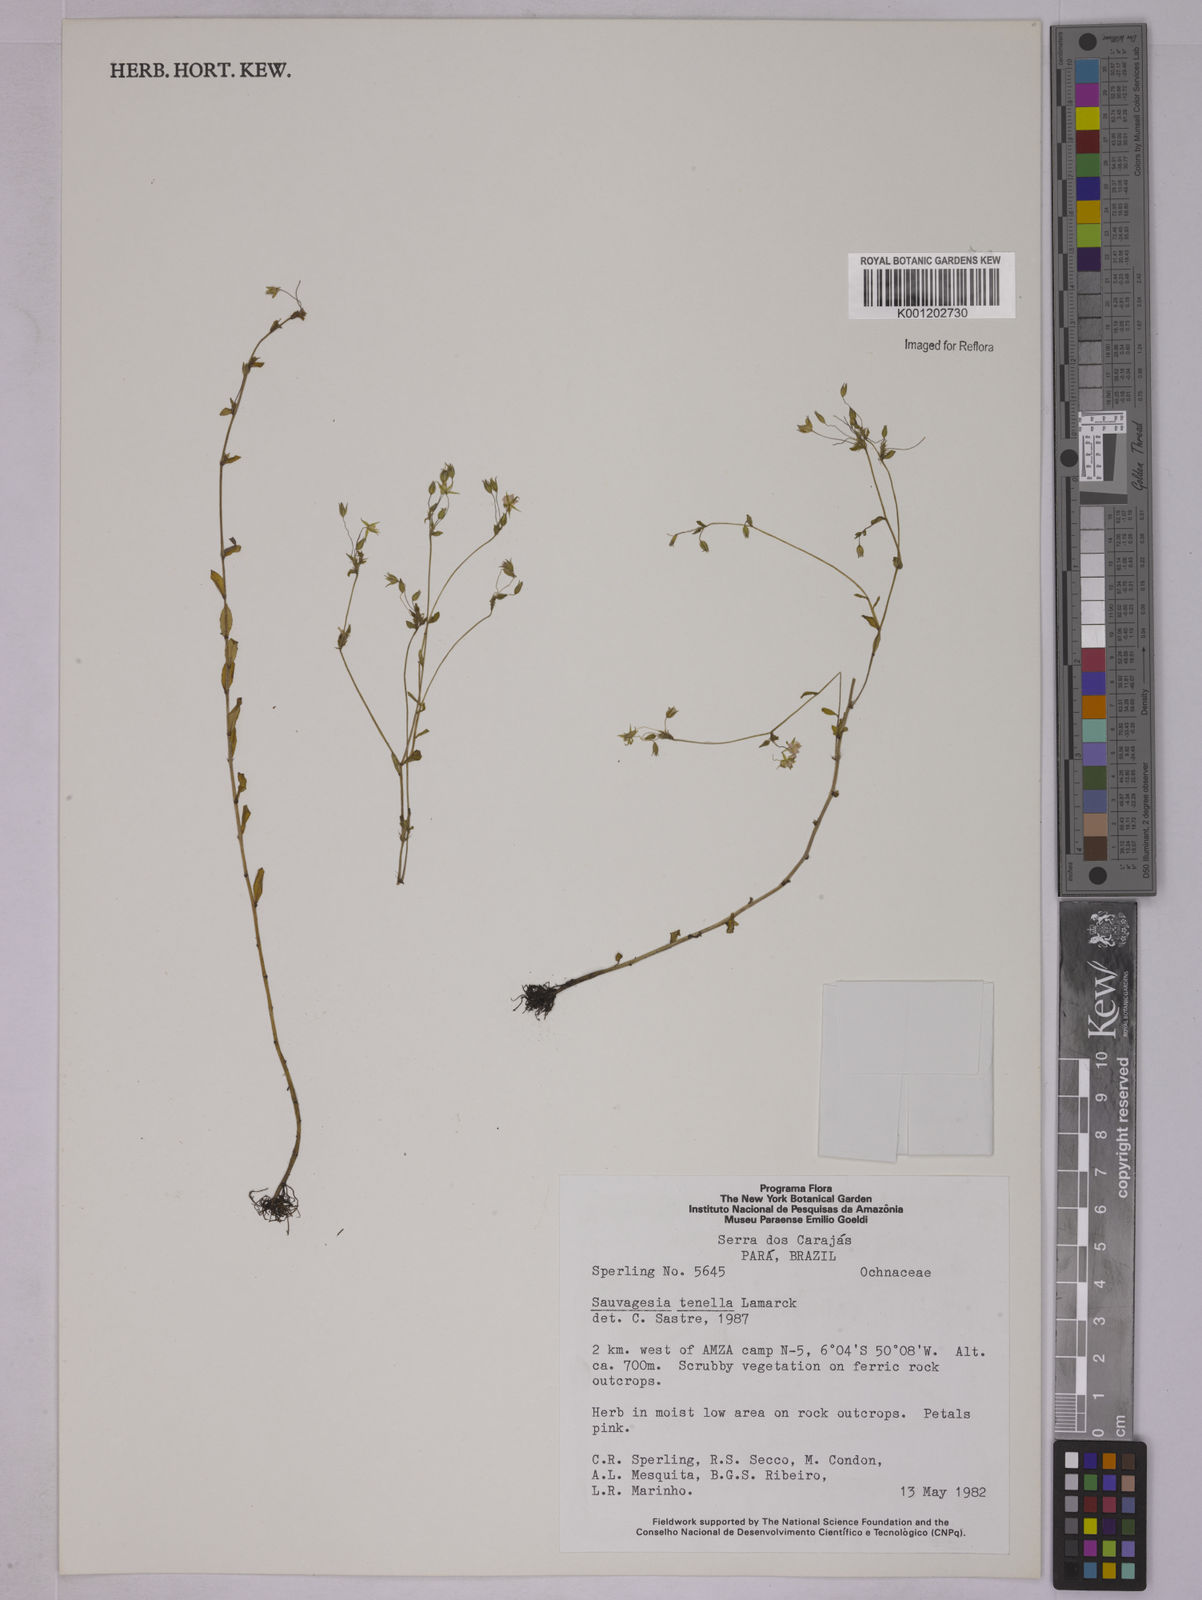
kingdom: Plantae
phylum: Tracheophyta
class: Magnoliopsida
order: Malpighiales
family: Ochnaceae
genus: Sauvagesia
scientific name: Sauvagesia tenella
